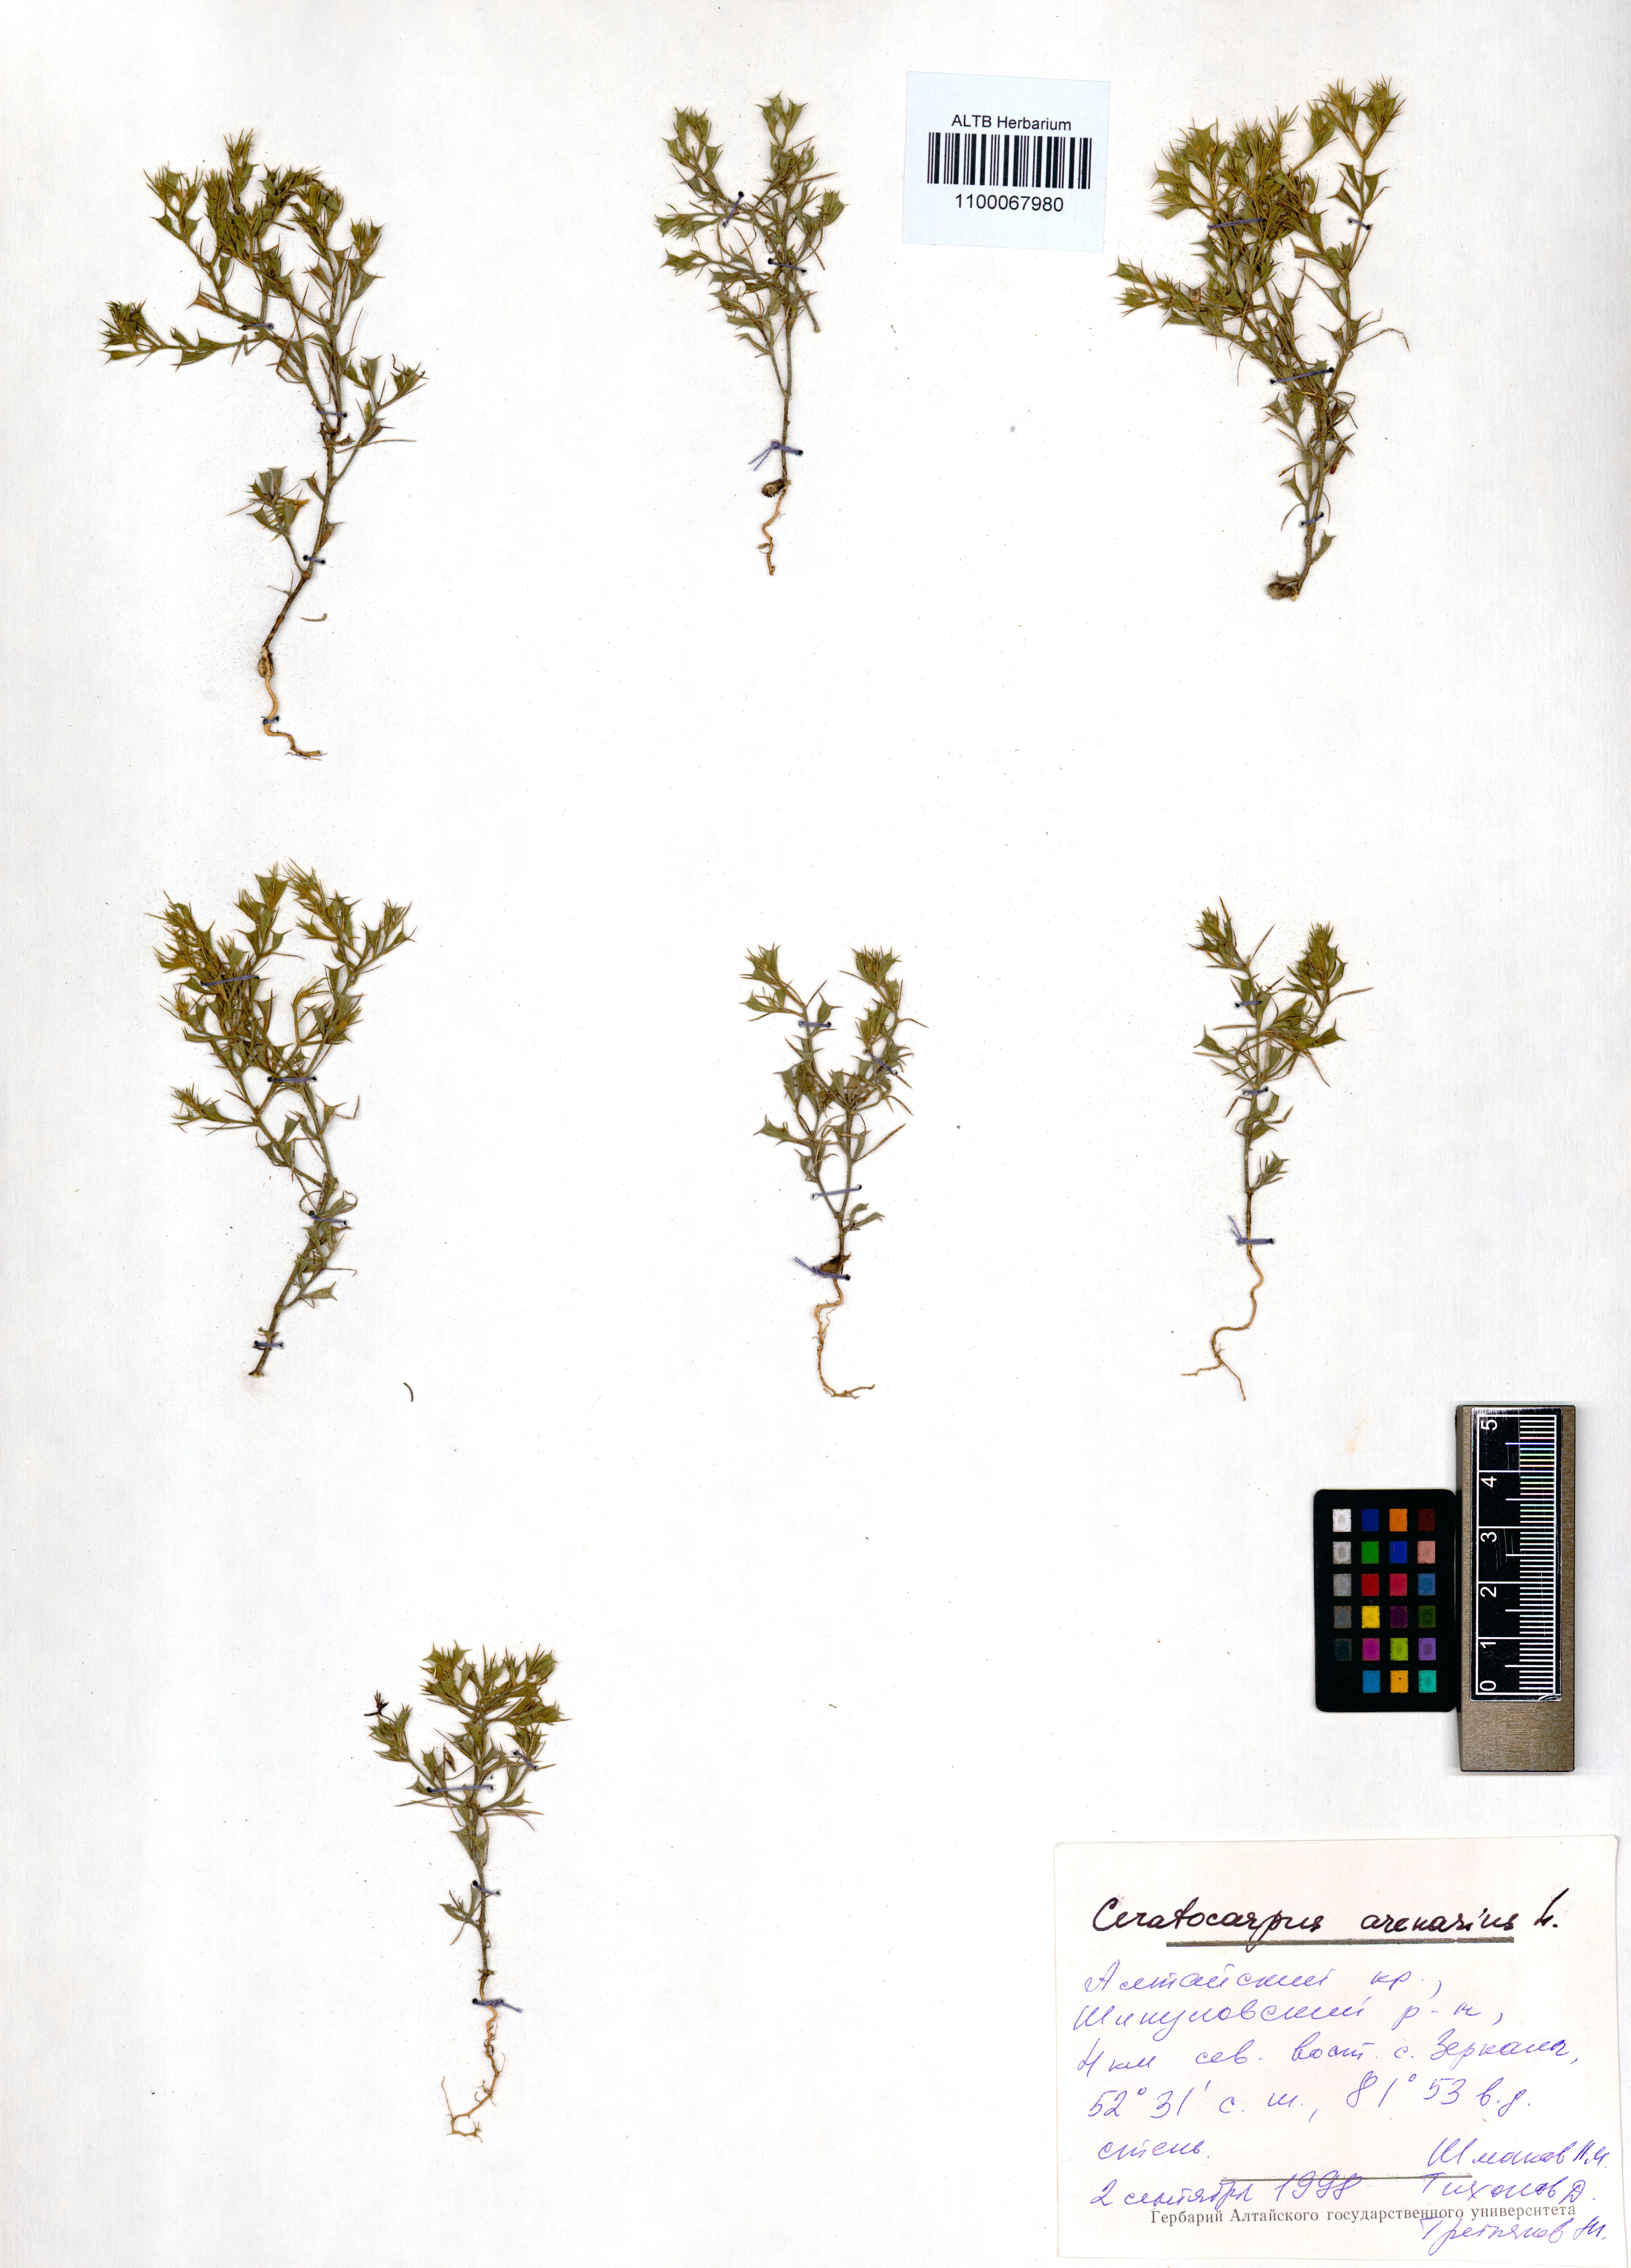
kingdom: Plantae
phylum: Tracheophyta
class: Magnoliopsida
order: Caryophyllales
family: Amaranthaceae
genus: Ceratocarpus
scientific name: Ceratocarpus arenarius
